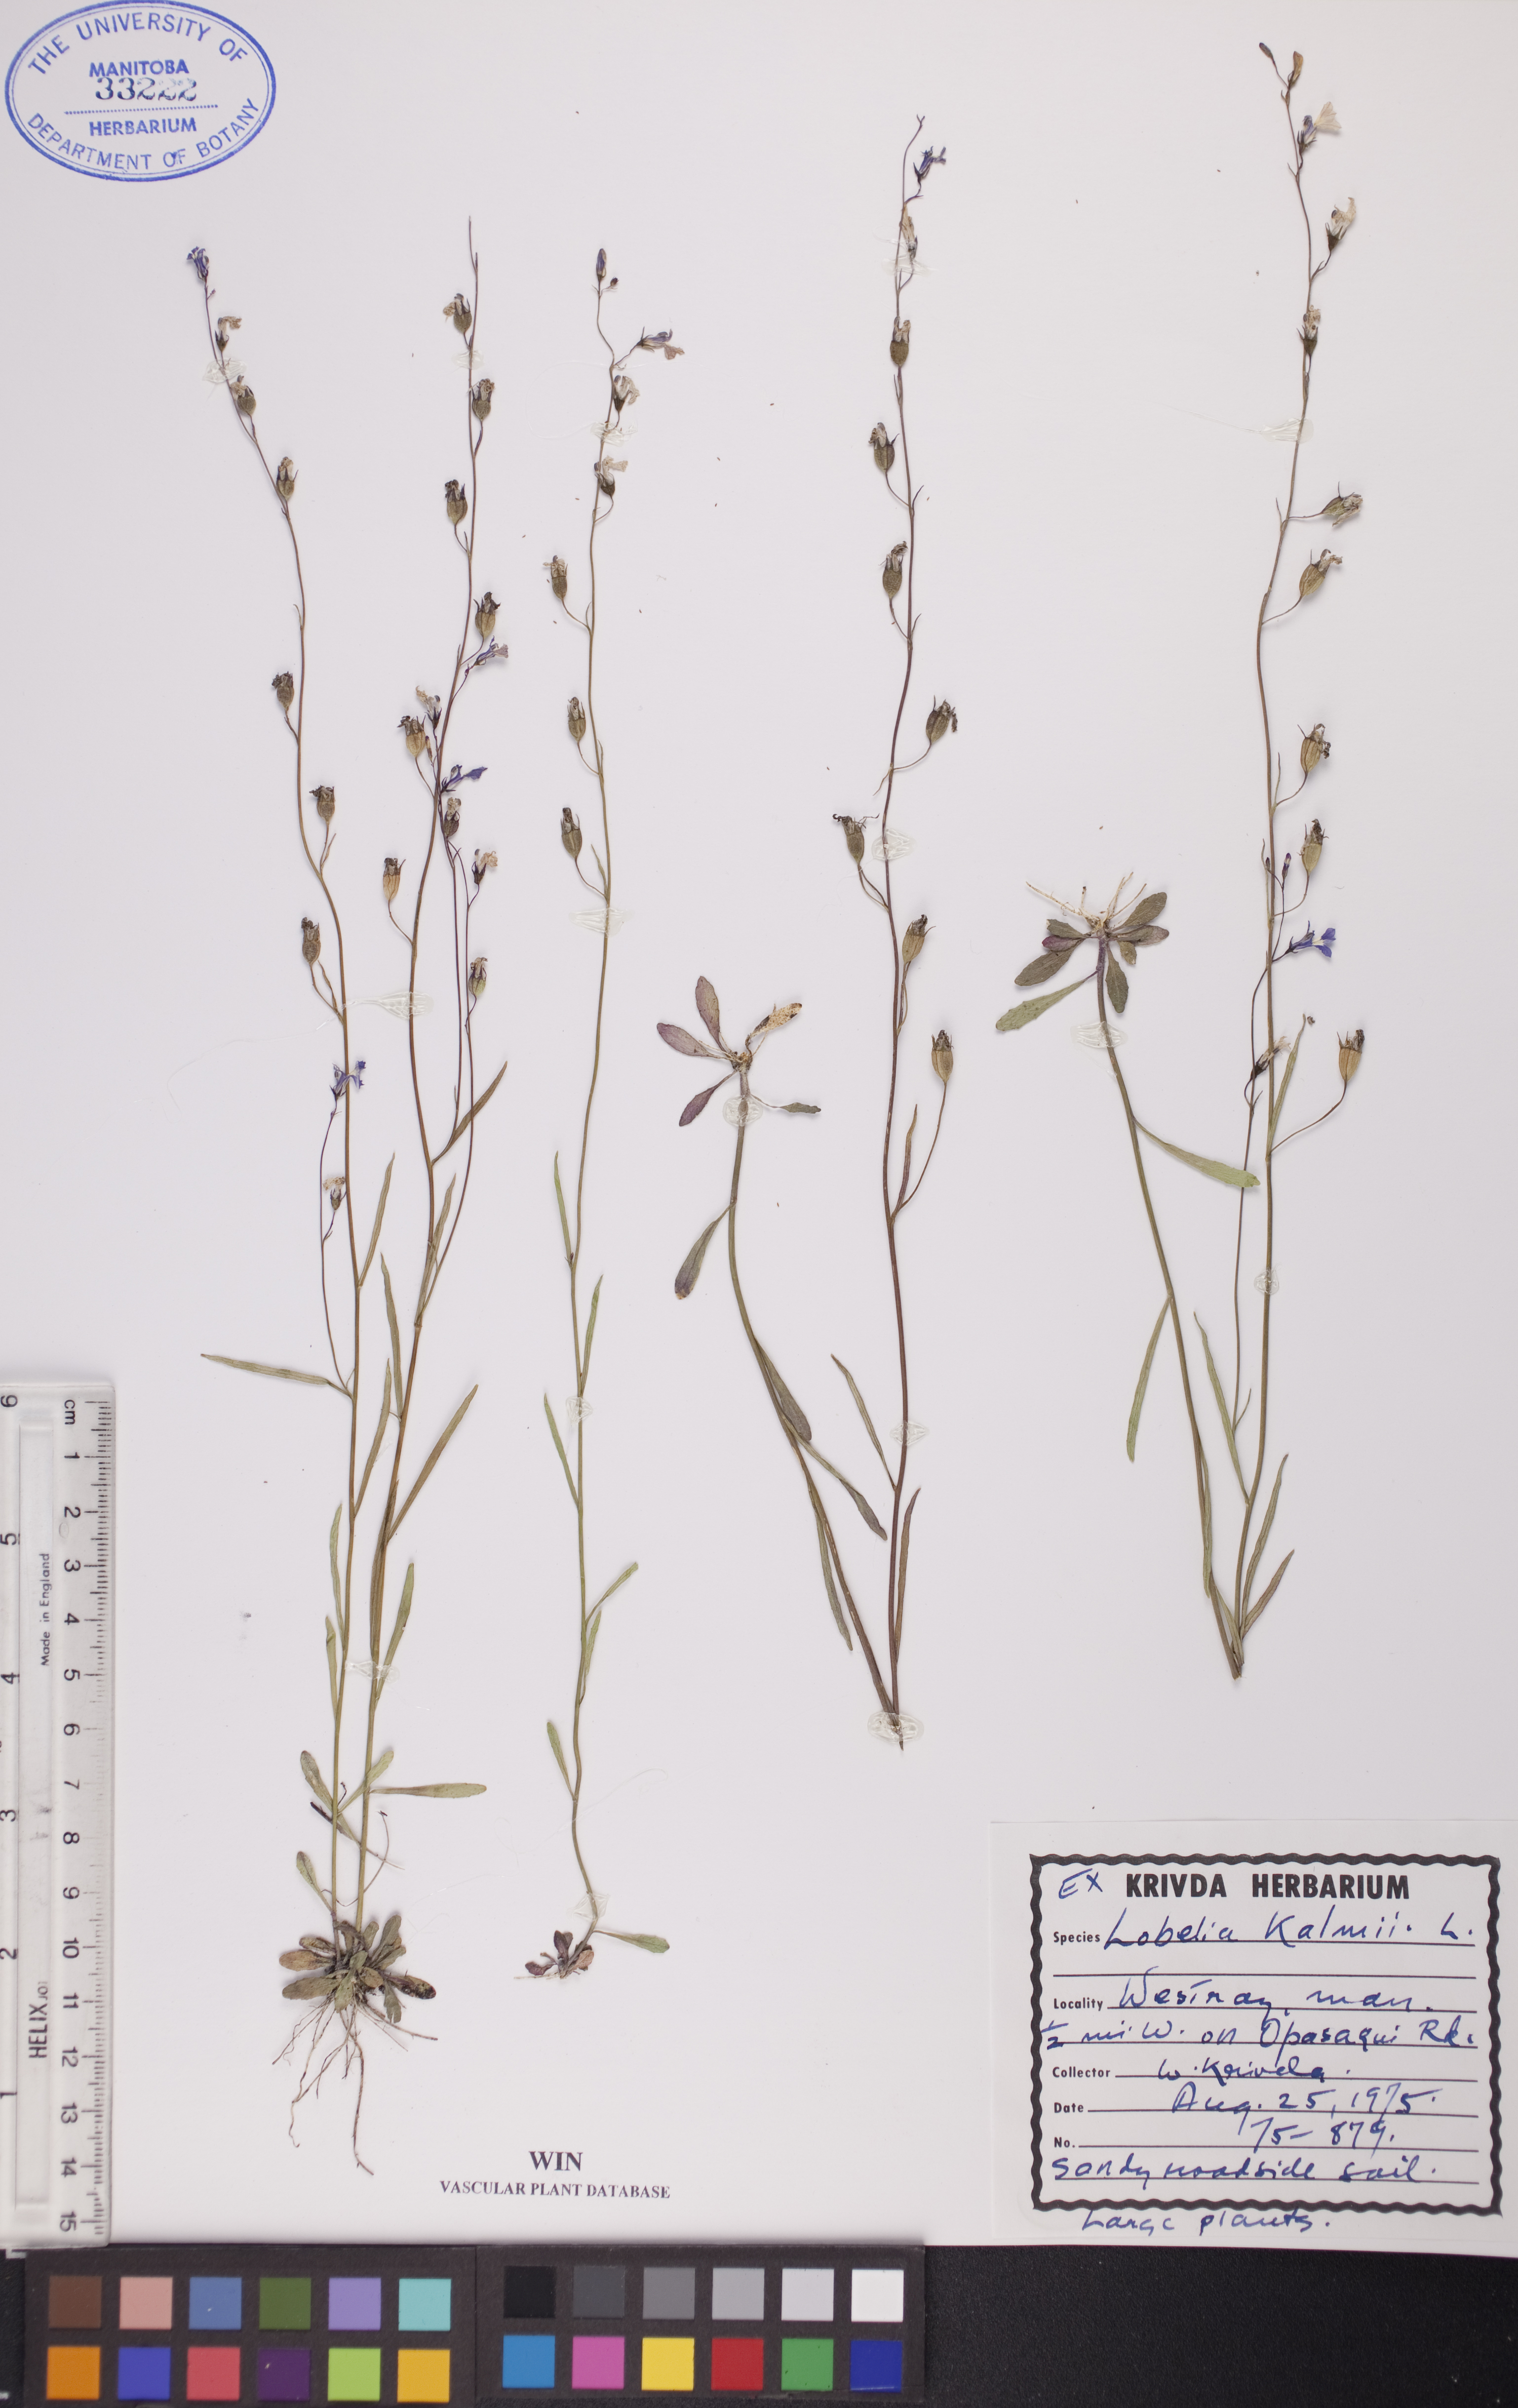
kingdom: Plantae
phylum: Tracheophyta
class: Magnoliopsida
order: Asterales
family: Campanulaceae
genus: Lobelia
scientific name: Lobelia kalmii
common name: Kalm's lobelia
